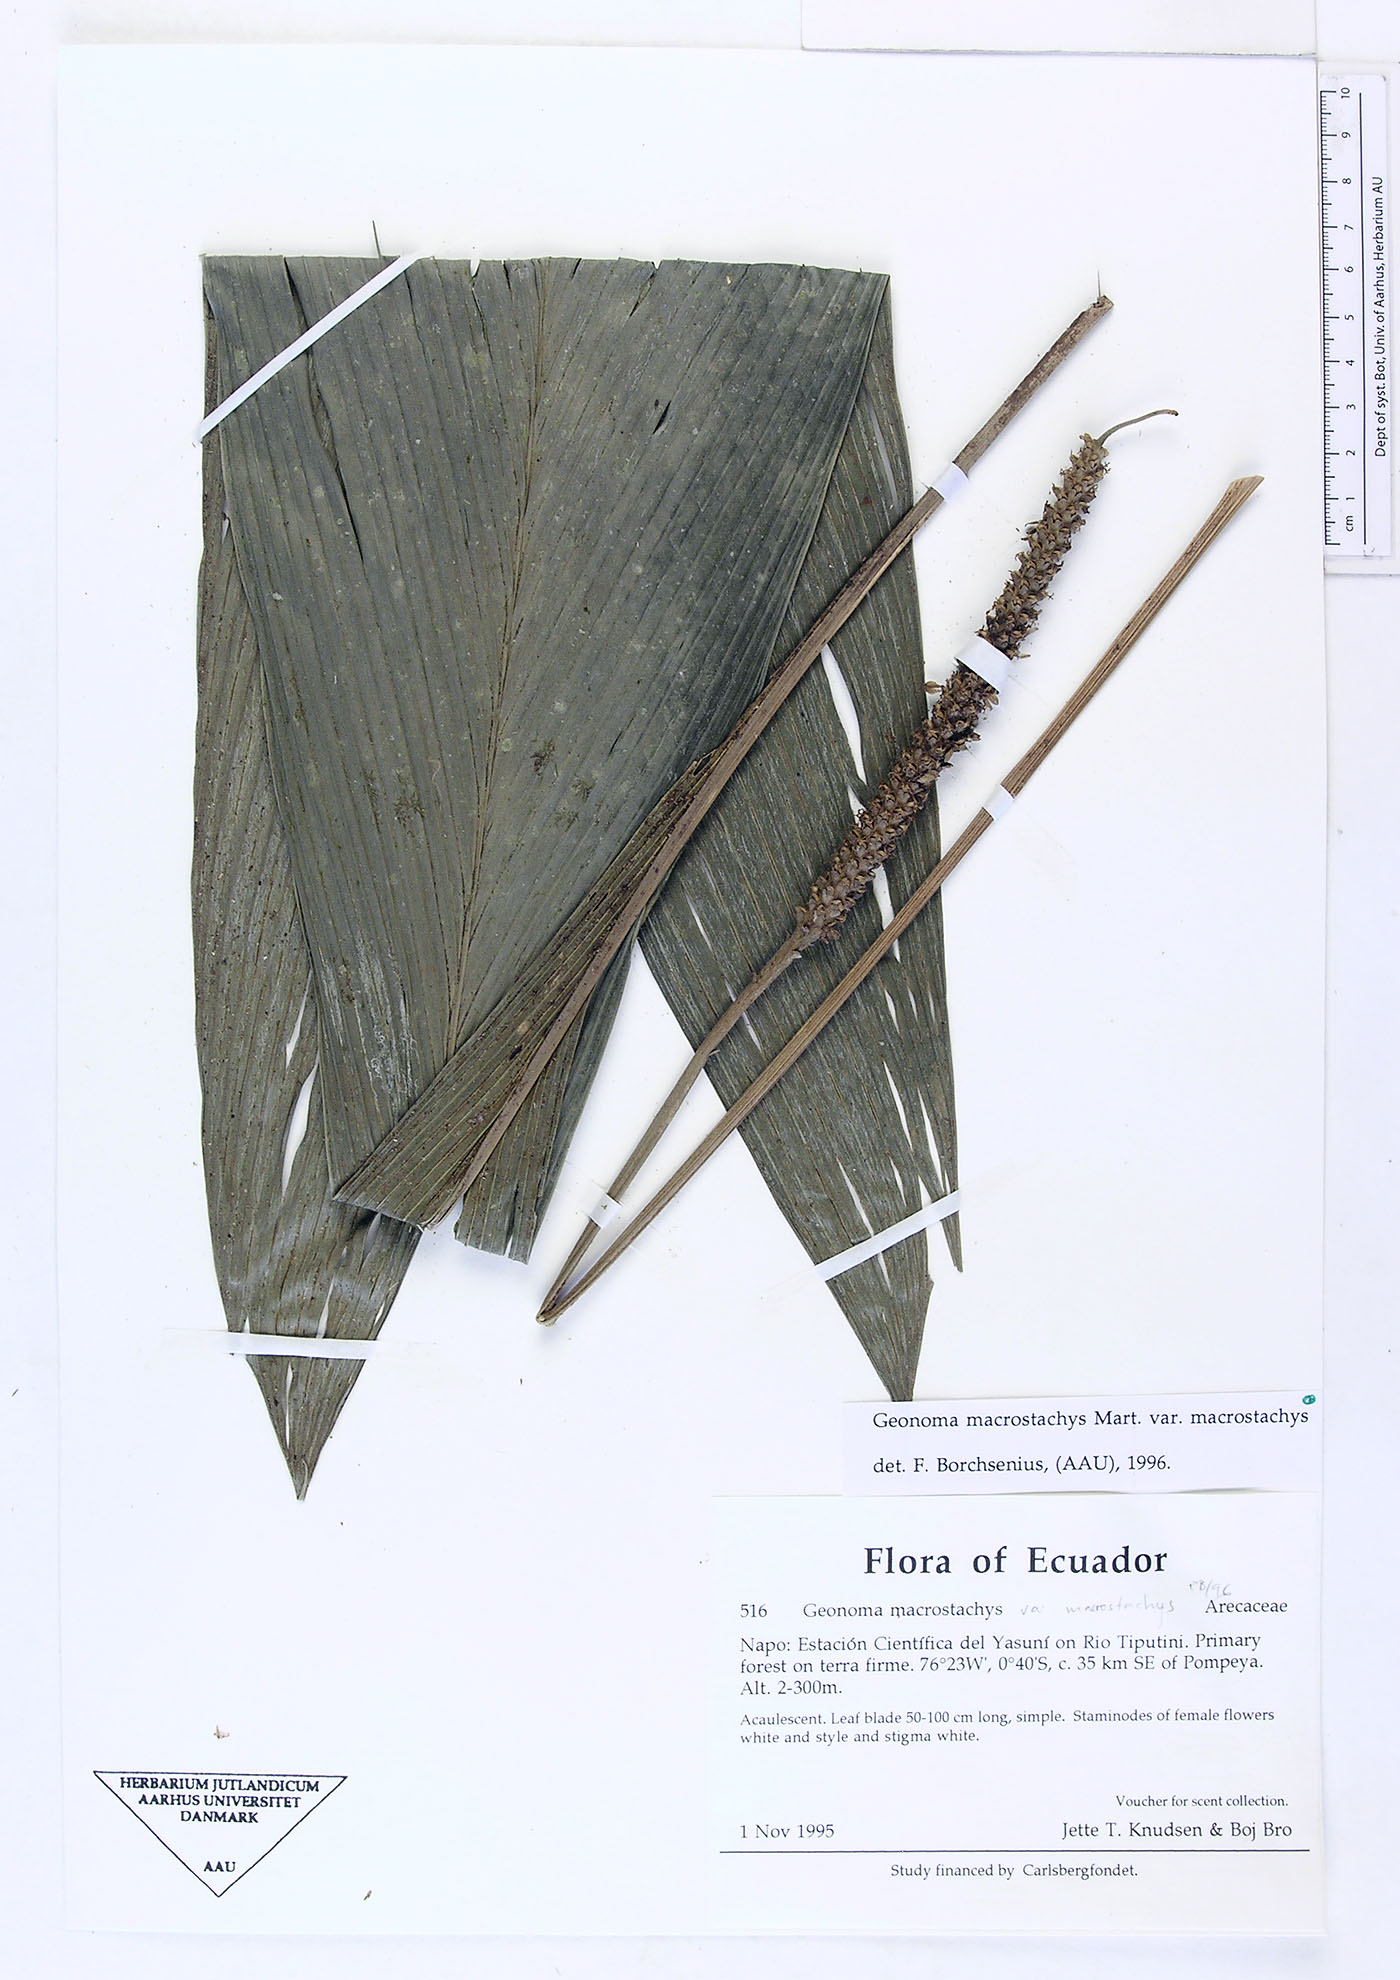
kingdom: Plantae
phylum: Tracheophyta
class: Liliopsida
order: Arecales
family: Arecaceae
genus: Geonoma
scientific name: Geonoma macrostachys
